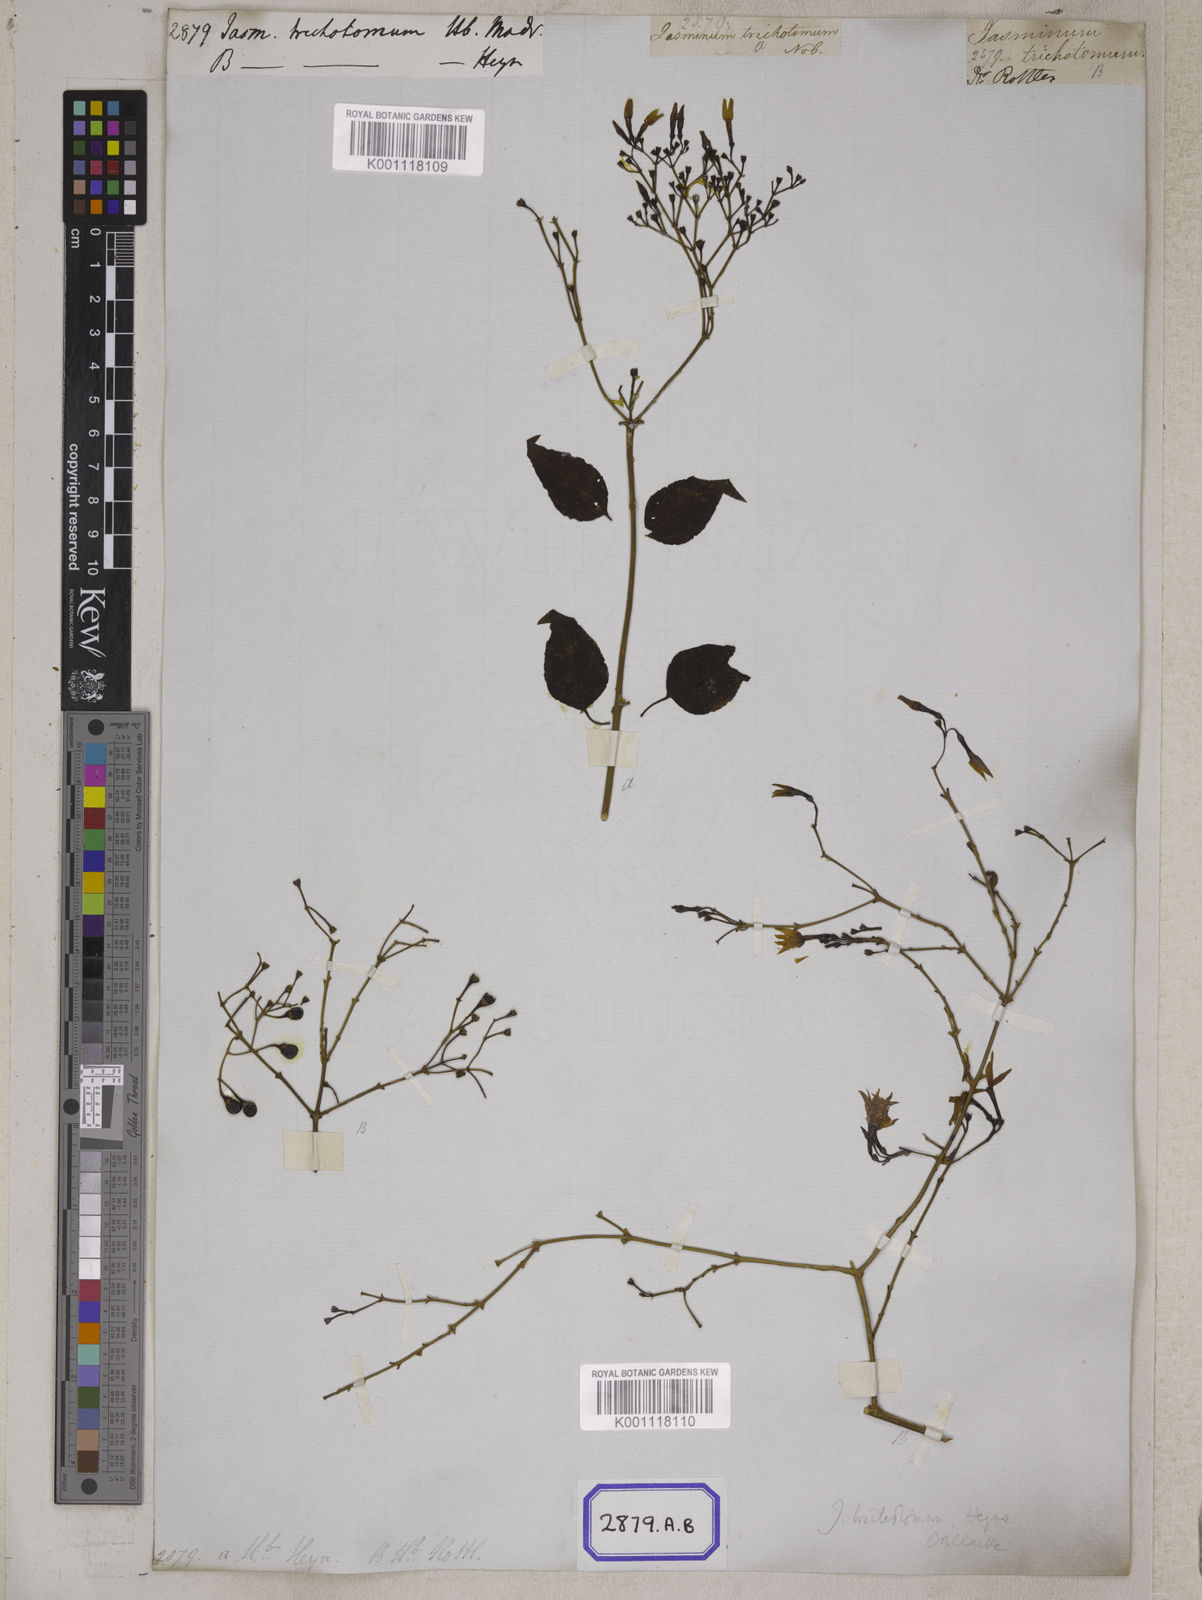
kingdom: Plantae
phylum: Tracheophyta
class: Magnoliopsida
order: Lamiales
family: Oleaceae
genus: Jasminum
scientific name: Jasminum trichotomum
